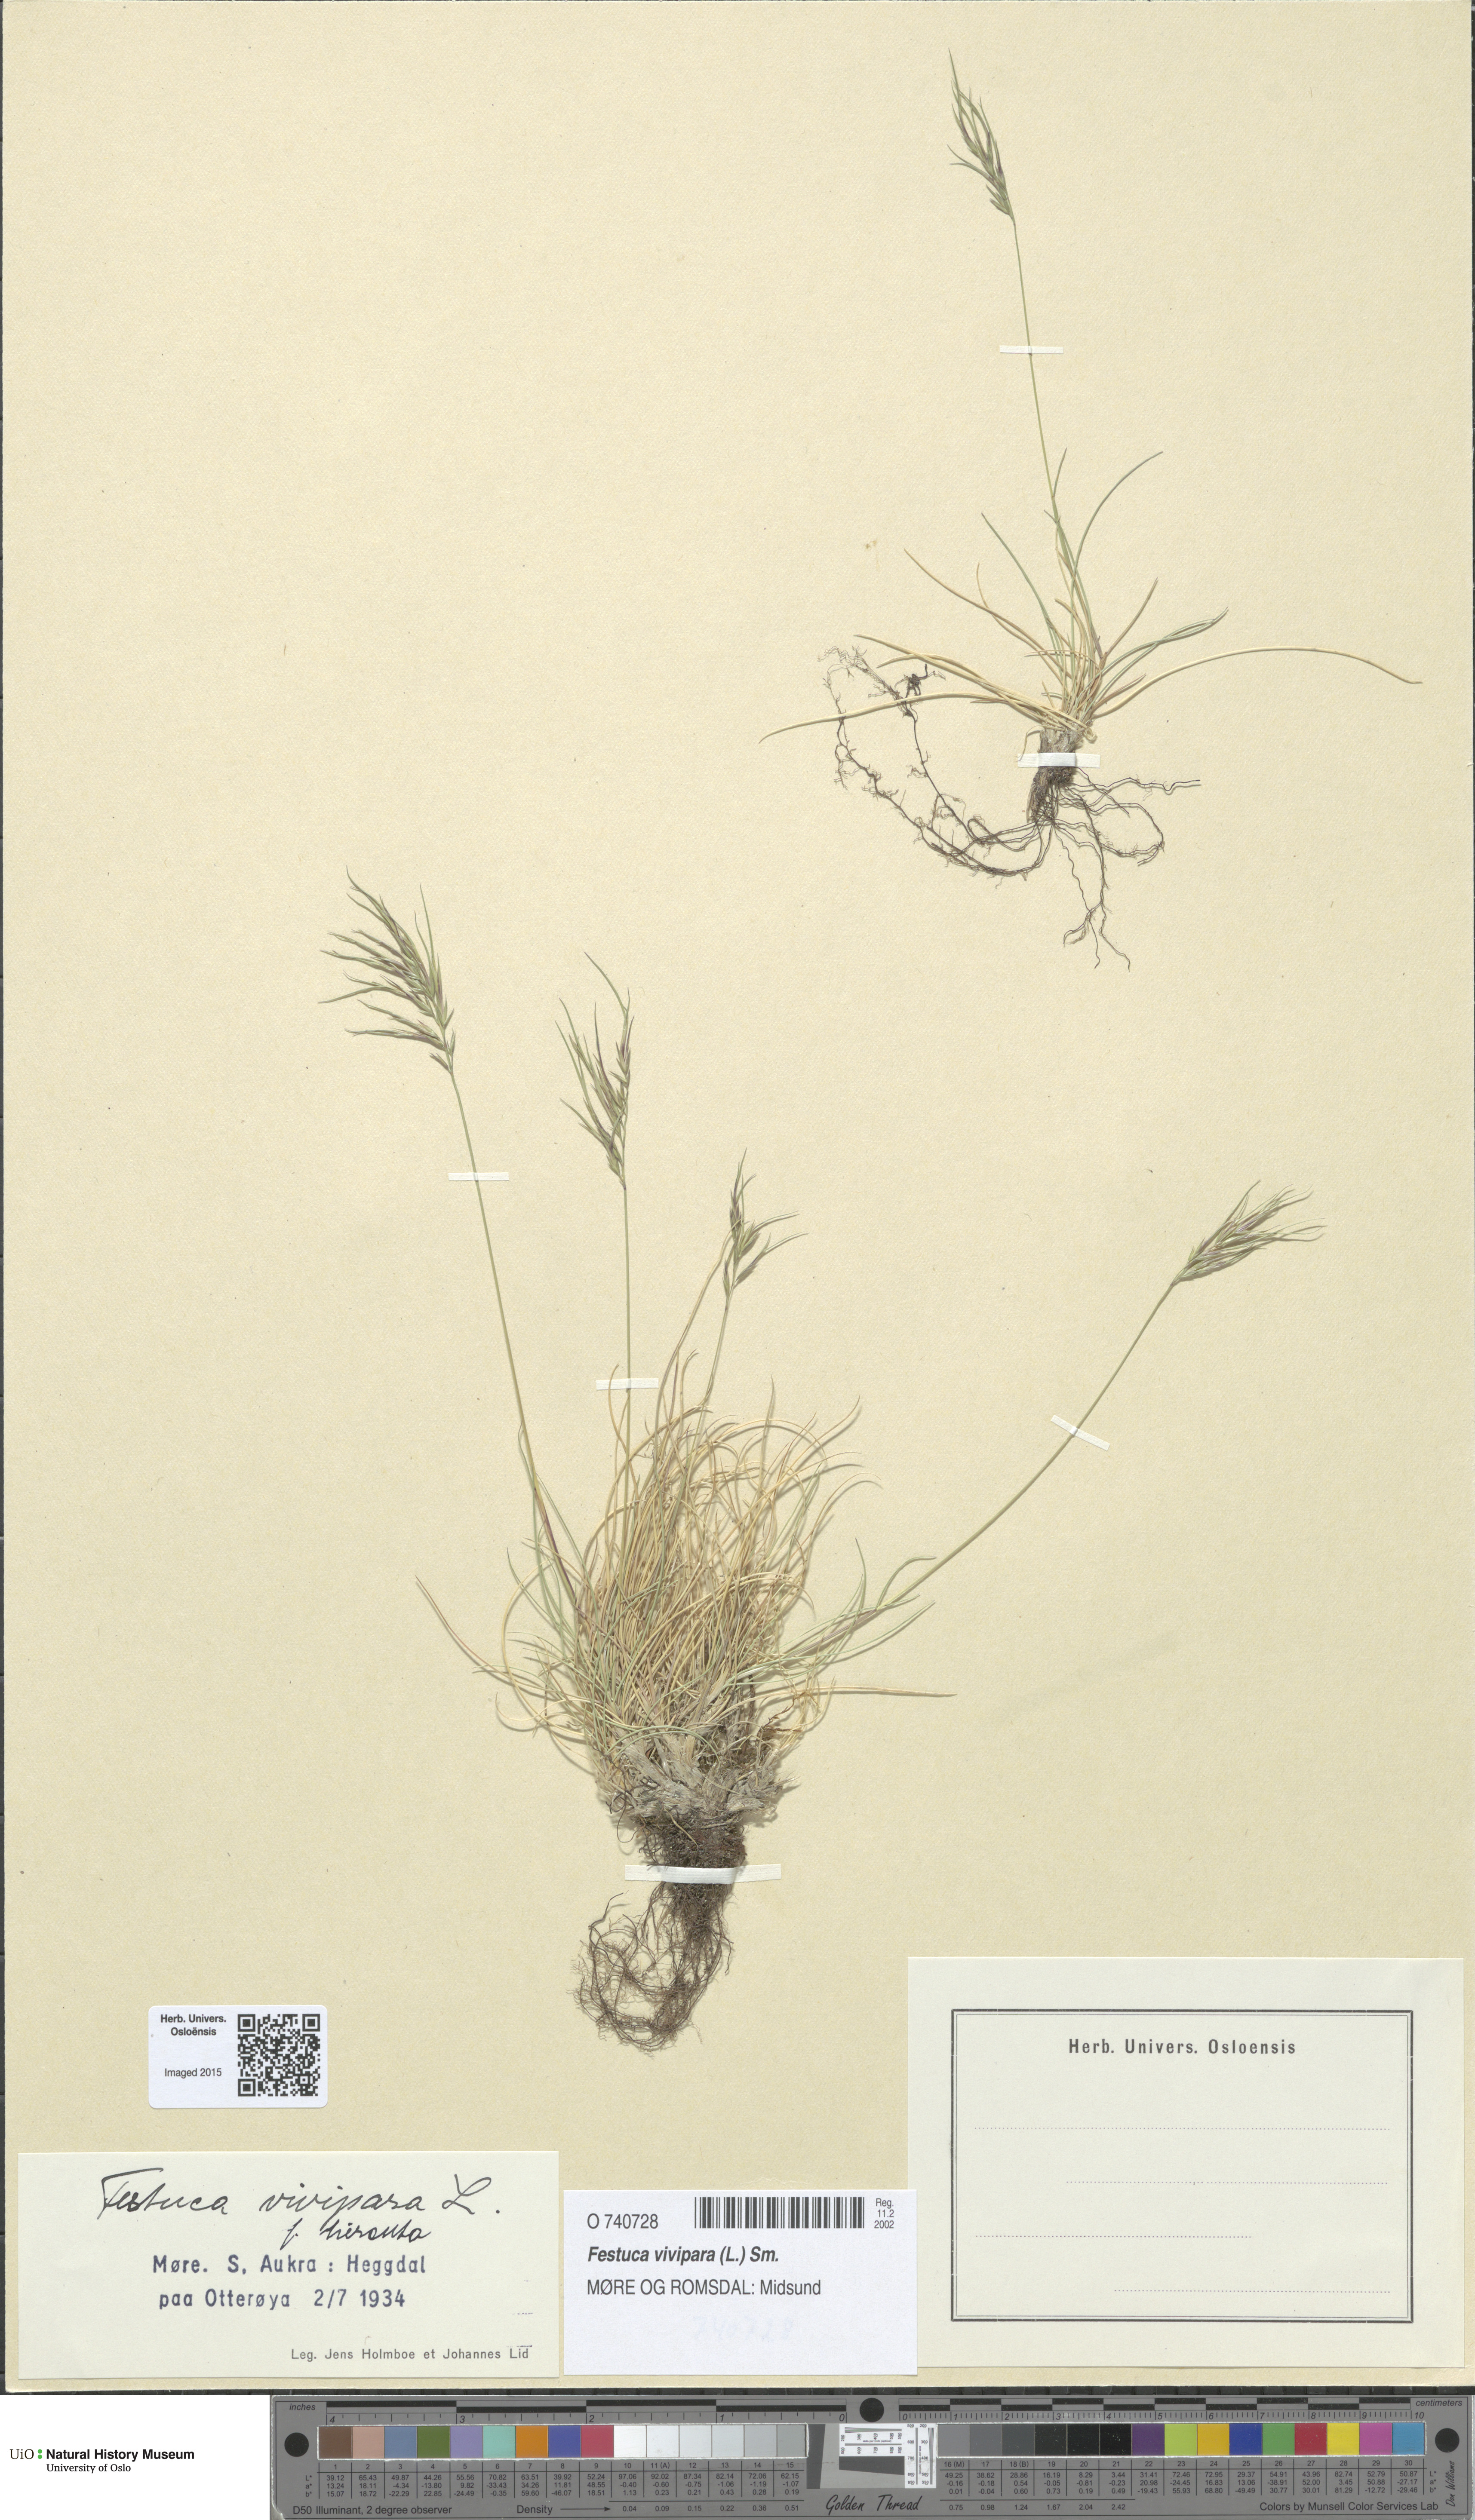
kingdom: Plantae
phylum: Tracheophyta
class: Liliopsida
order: Poales
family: Poaceae
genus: Festuca
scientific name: Festuca vivipara
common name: Viviparous sheep's-fescue
